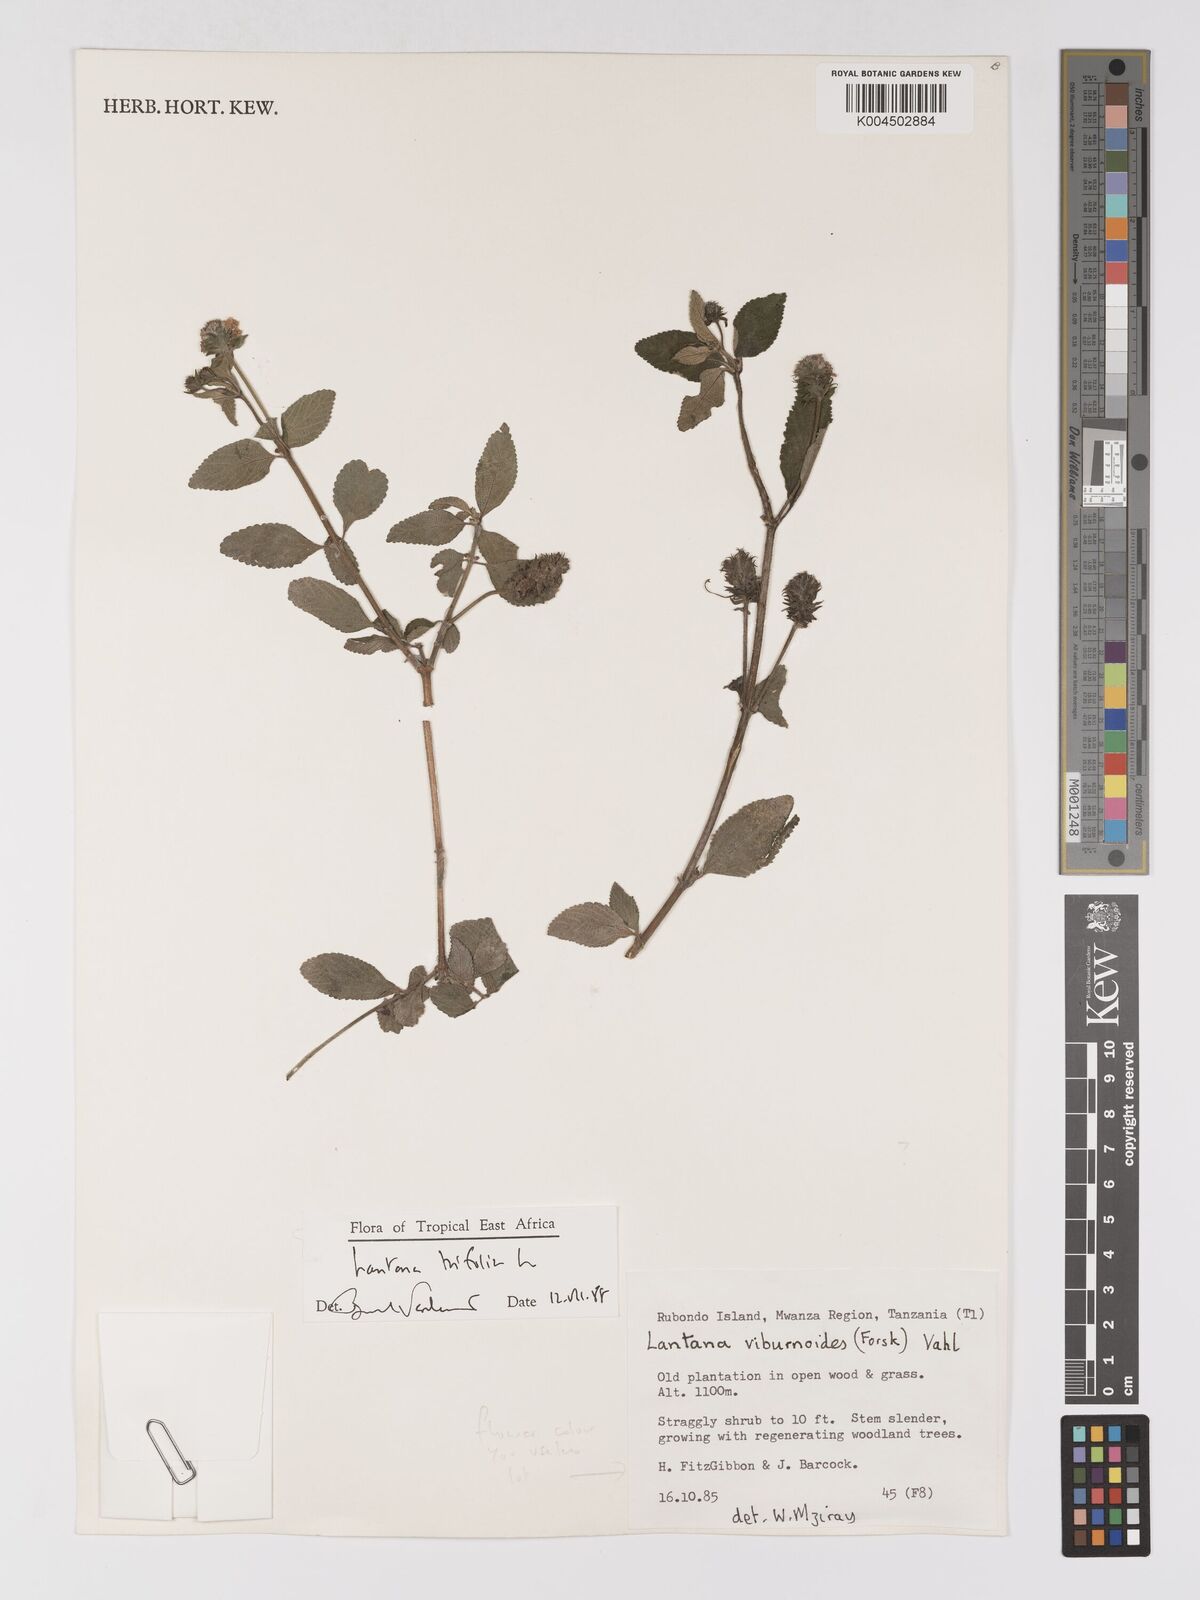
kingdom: Plantae
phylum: Tracheophyta
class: Magnoliopsida
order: Lamiales
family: Verbenaceae
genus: Lantana
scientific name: Lantana trifolia
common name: Sweet-sage
